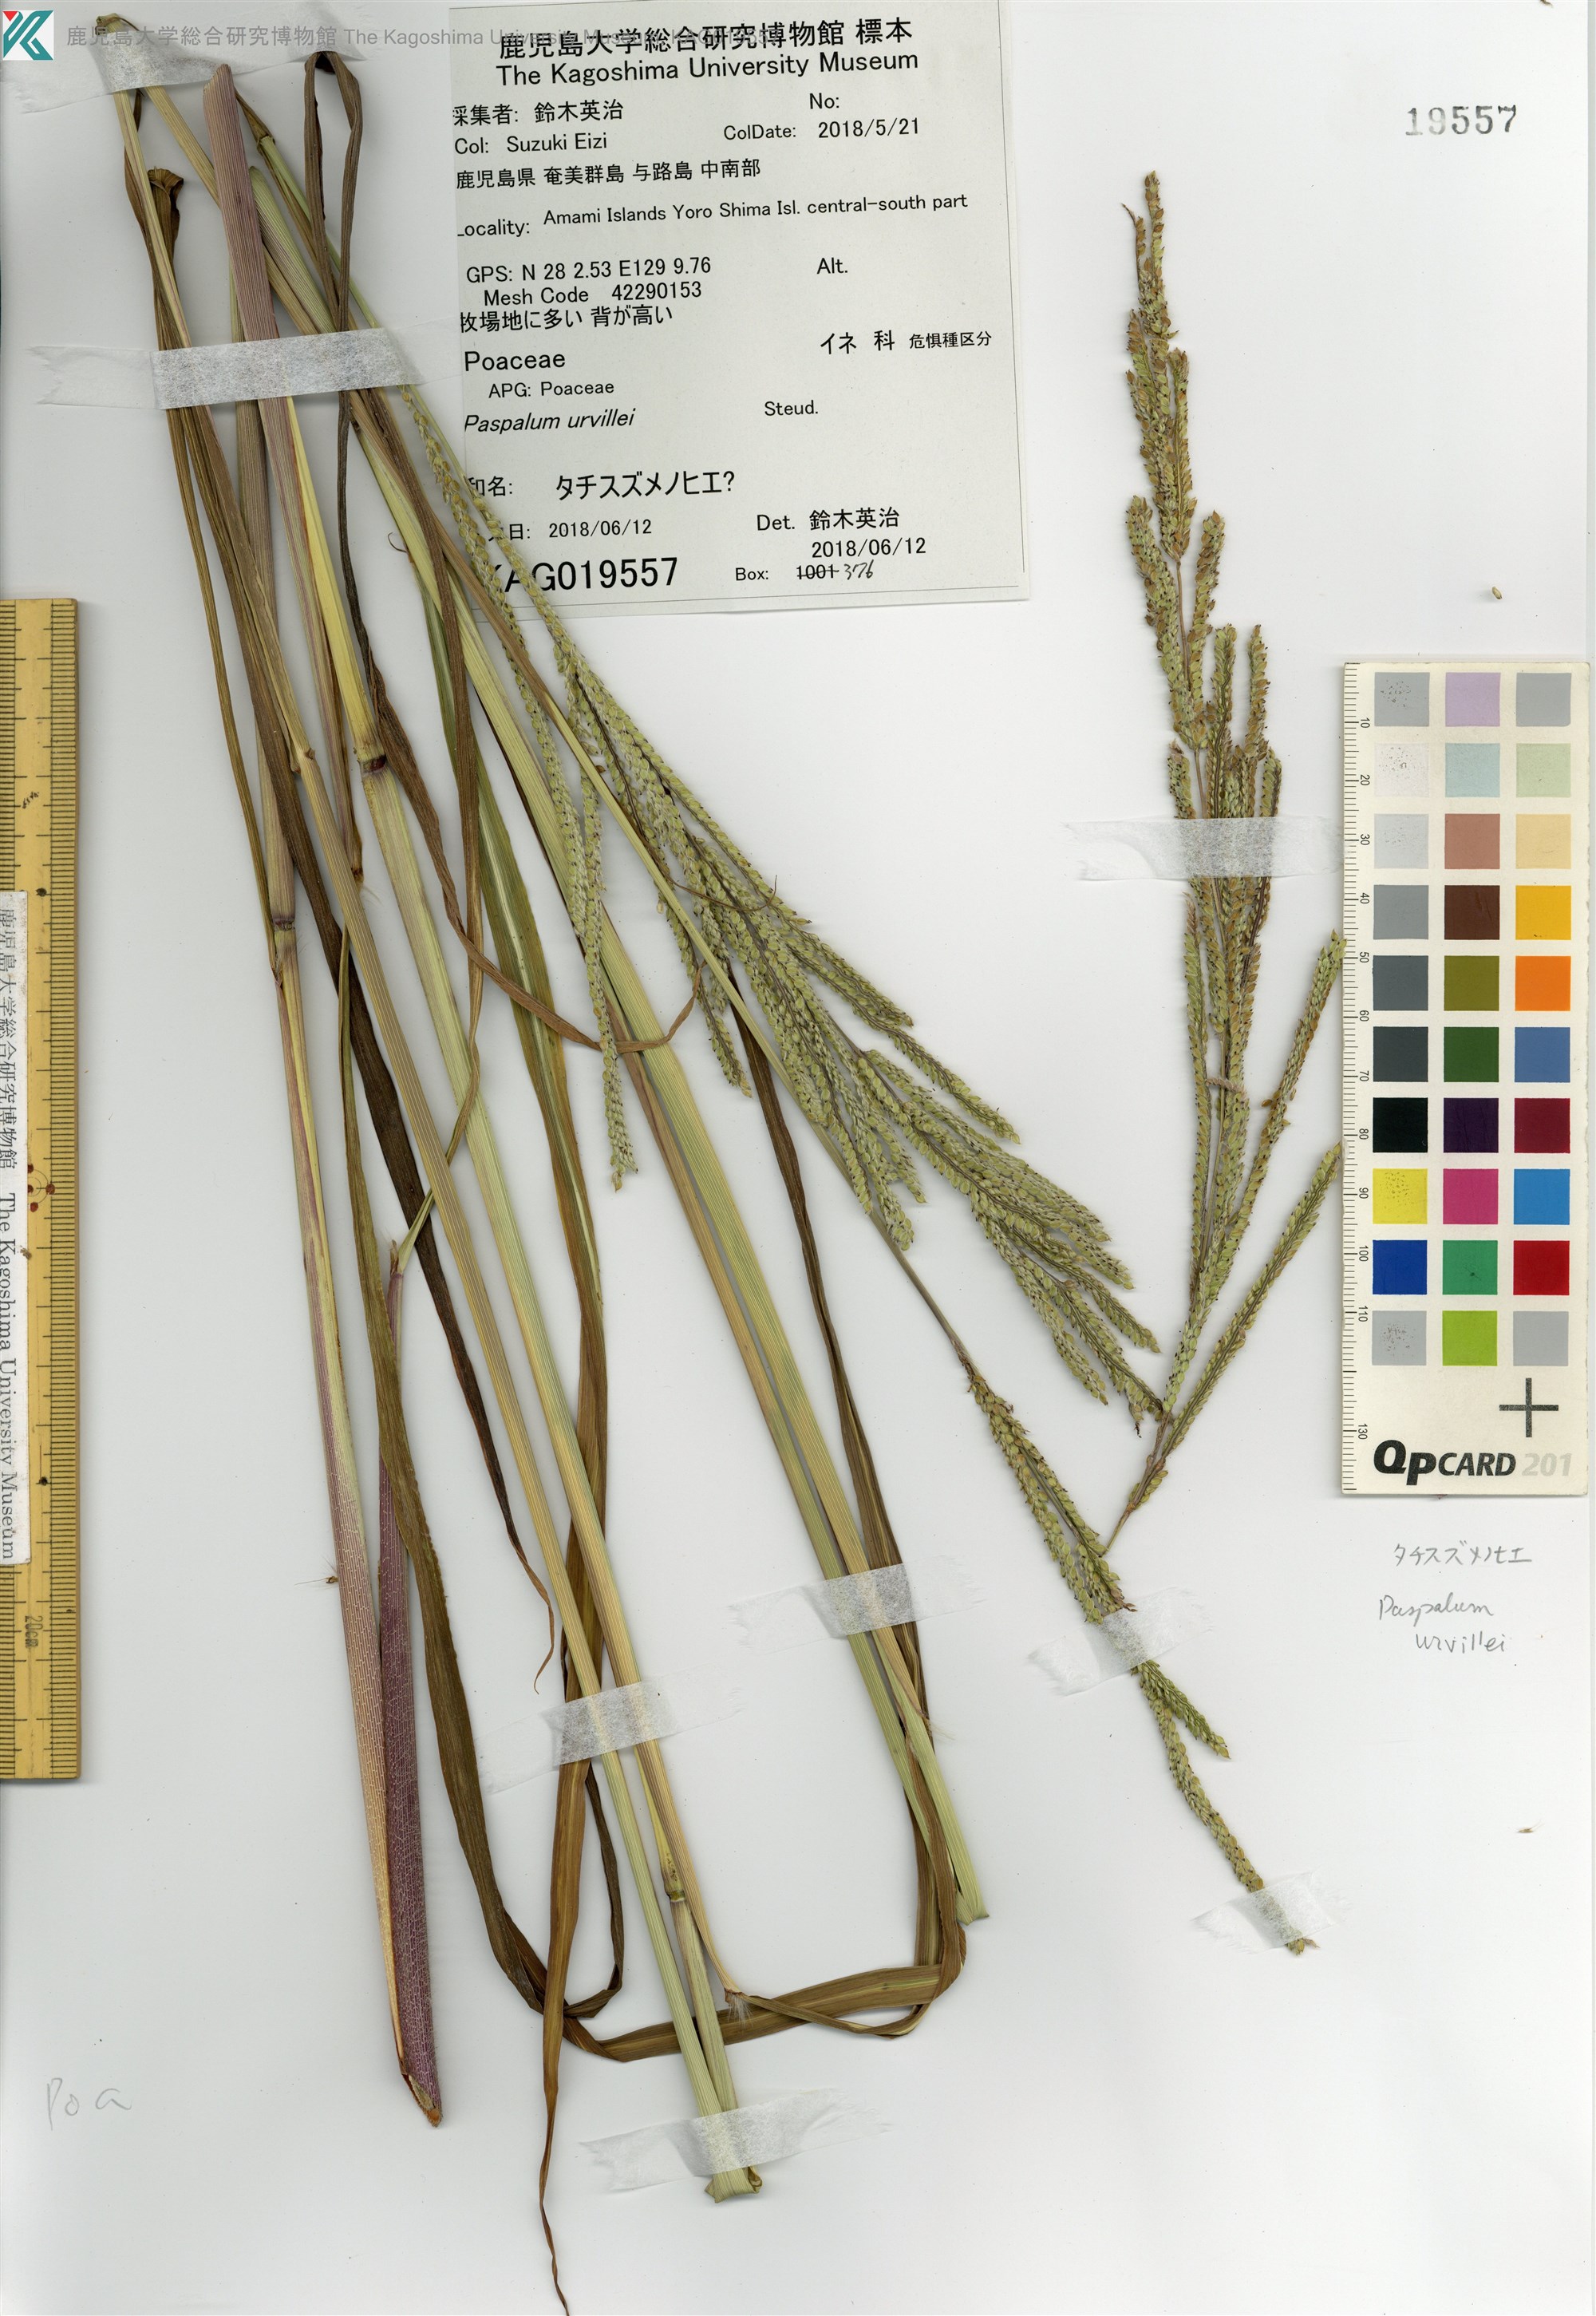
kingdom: Plantae
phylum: Tracheophyta
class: Liliopsida
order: Poales
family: Poaceae
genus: Paspalum
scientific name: Paspalum
